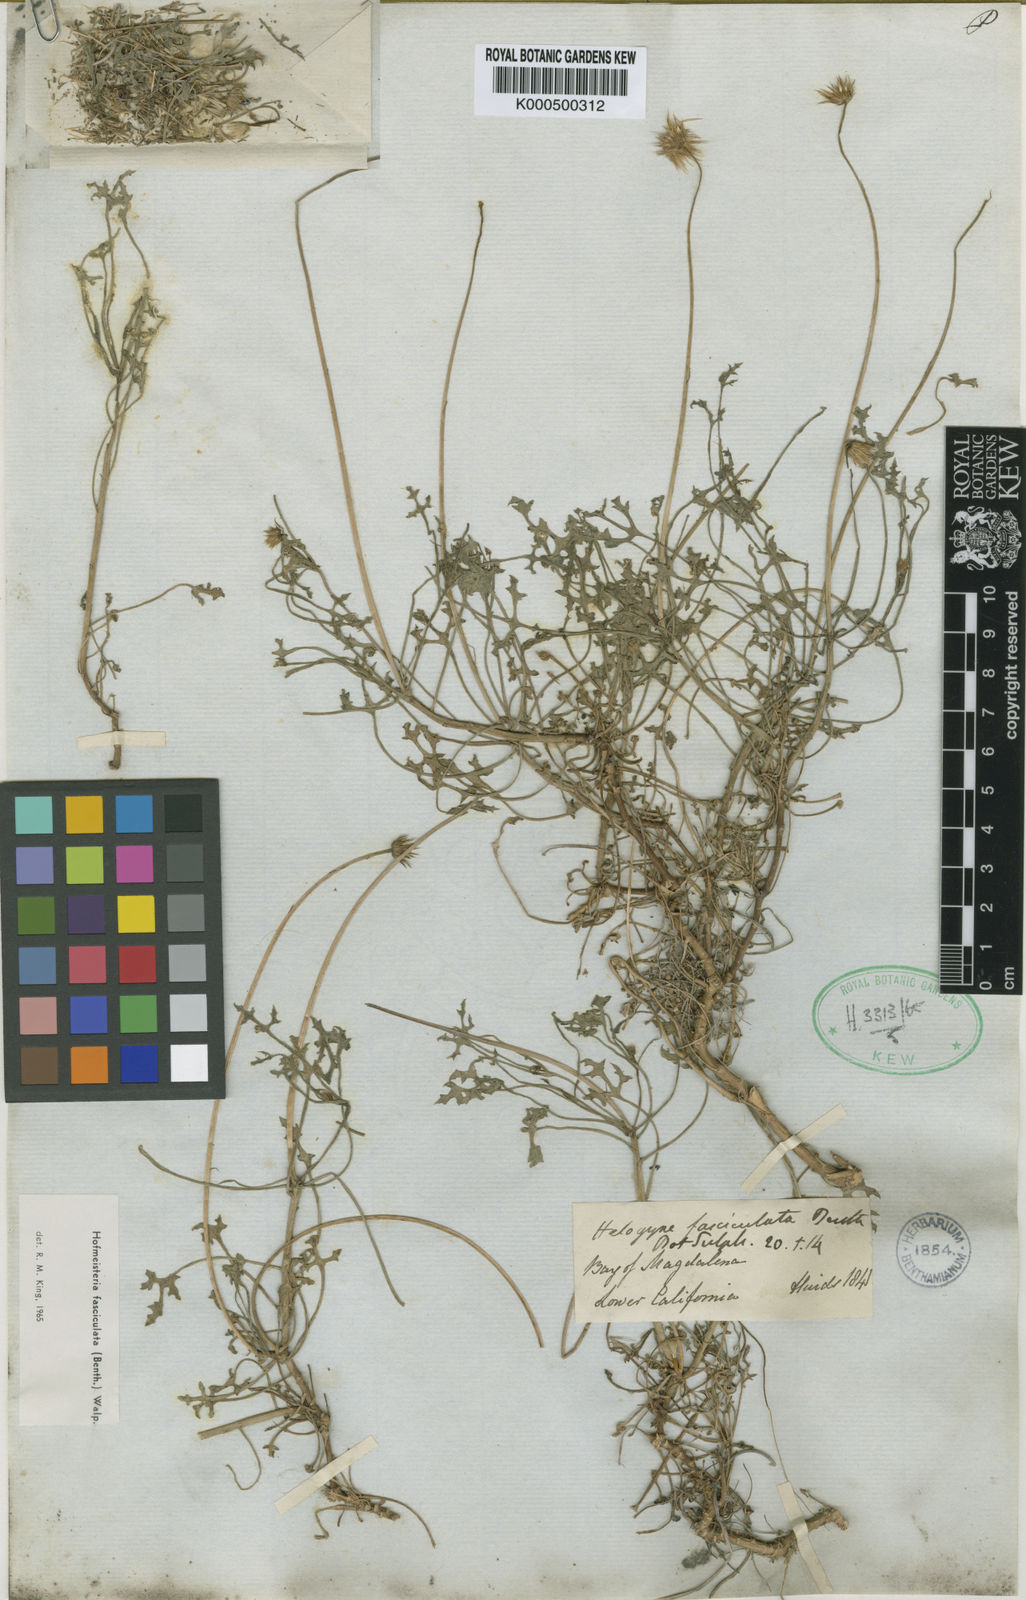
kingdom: Plantae
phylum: Tracheophyta
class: Magnoliopsida
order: Asterales
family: Asteraceae
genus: Hofmeisteria
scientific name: Hofmeisteria fasciculata
